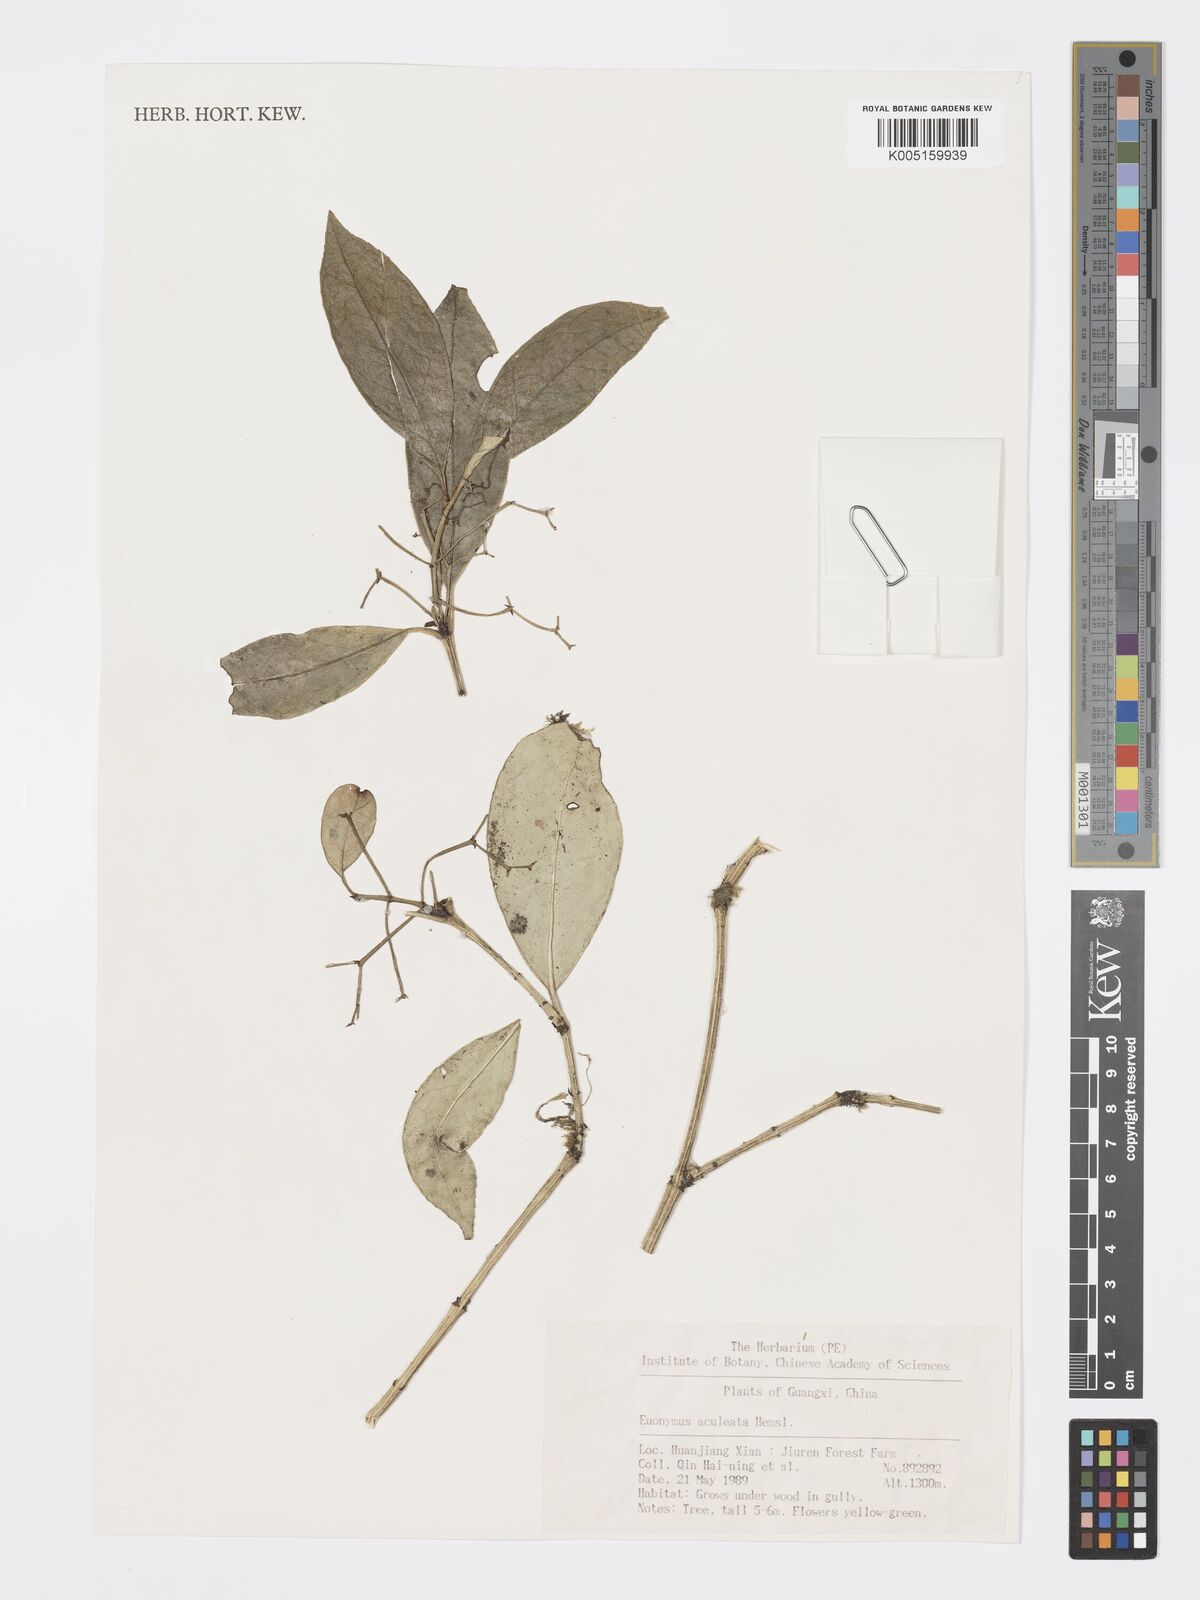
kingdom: Plantae
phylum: Tracheophyta
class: Magnoliopsida
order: Celastrales
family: Celastraceae
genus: Euonymus
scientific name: Euonymus aculeatus
